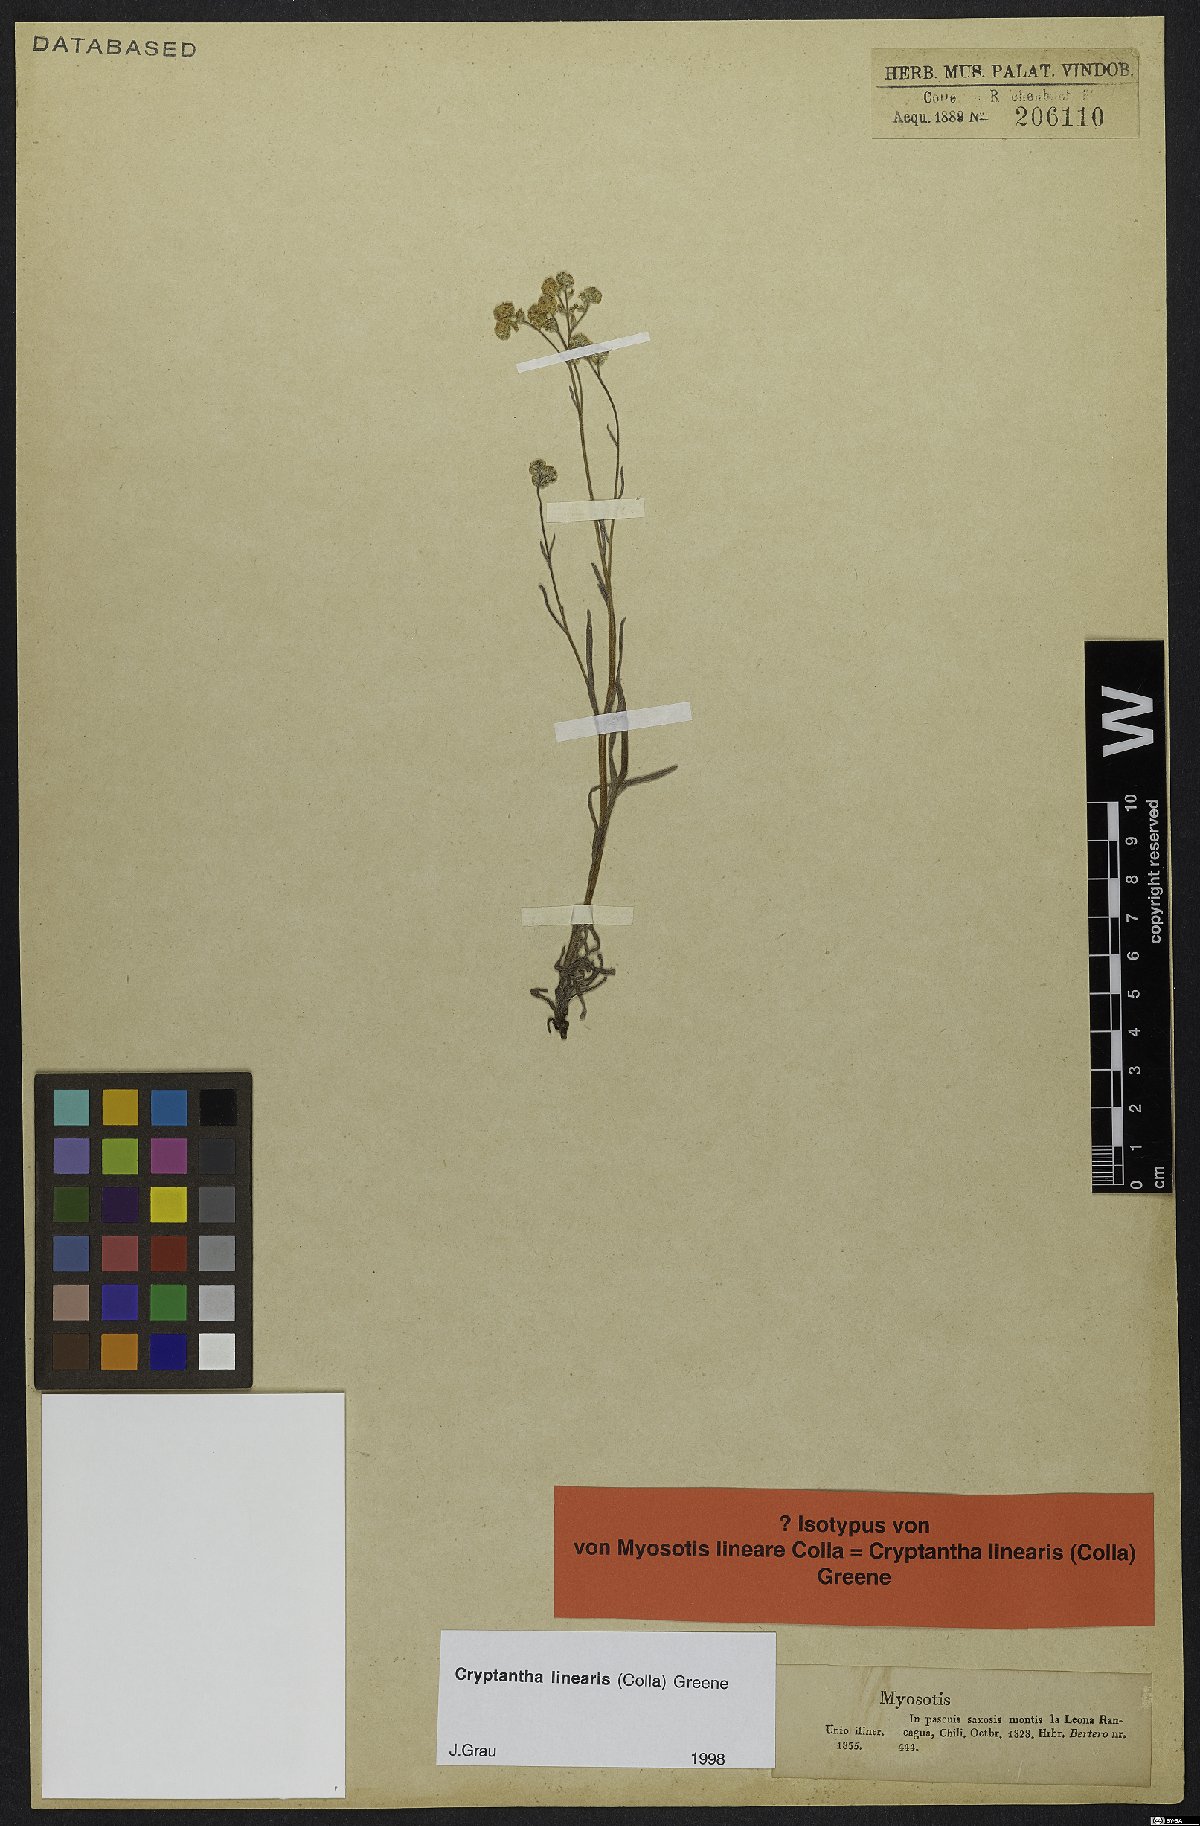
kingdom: Plantae
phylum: Tracheophyta
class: Magnoliopsida
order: Boraginales
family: Boraginaceae
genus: Cryptantha
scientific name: Cryptantha linearis
